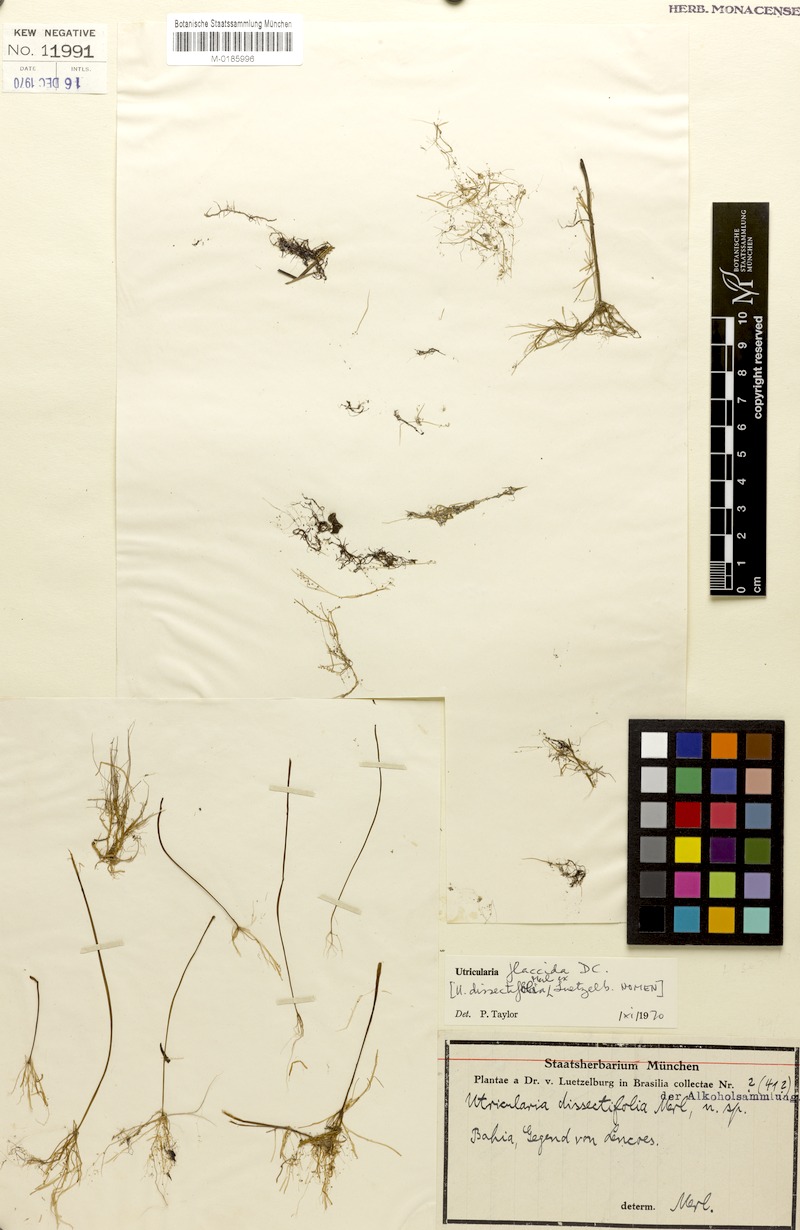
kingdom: Plantae
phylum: Tracheophyta
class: Magnoliopsida
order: Lamiales
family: Lentibulariaceae
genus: Utricularia
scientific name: Utricularia flaccida
